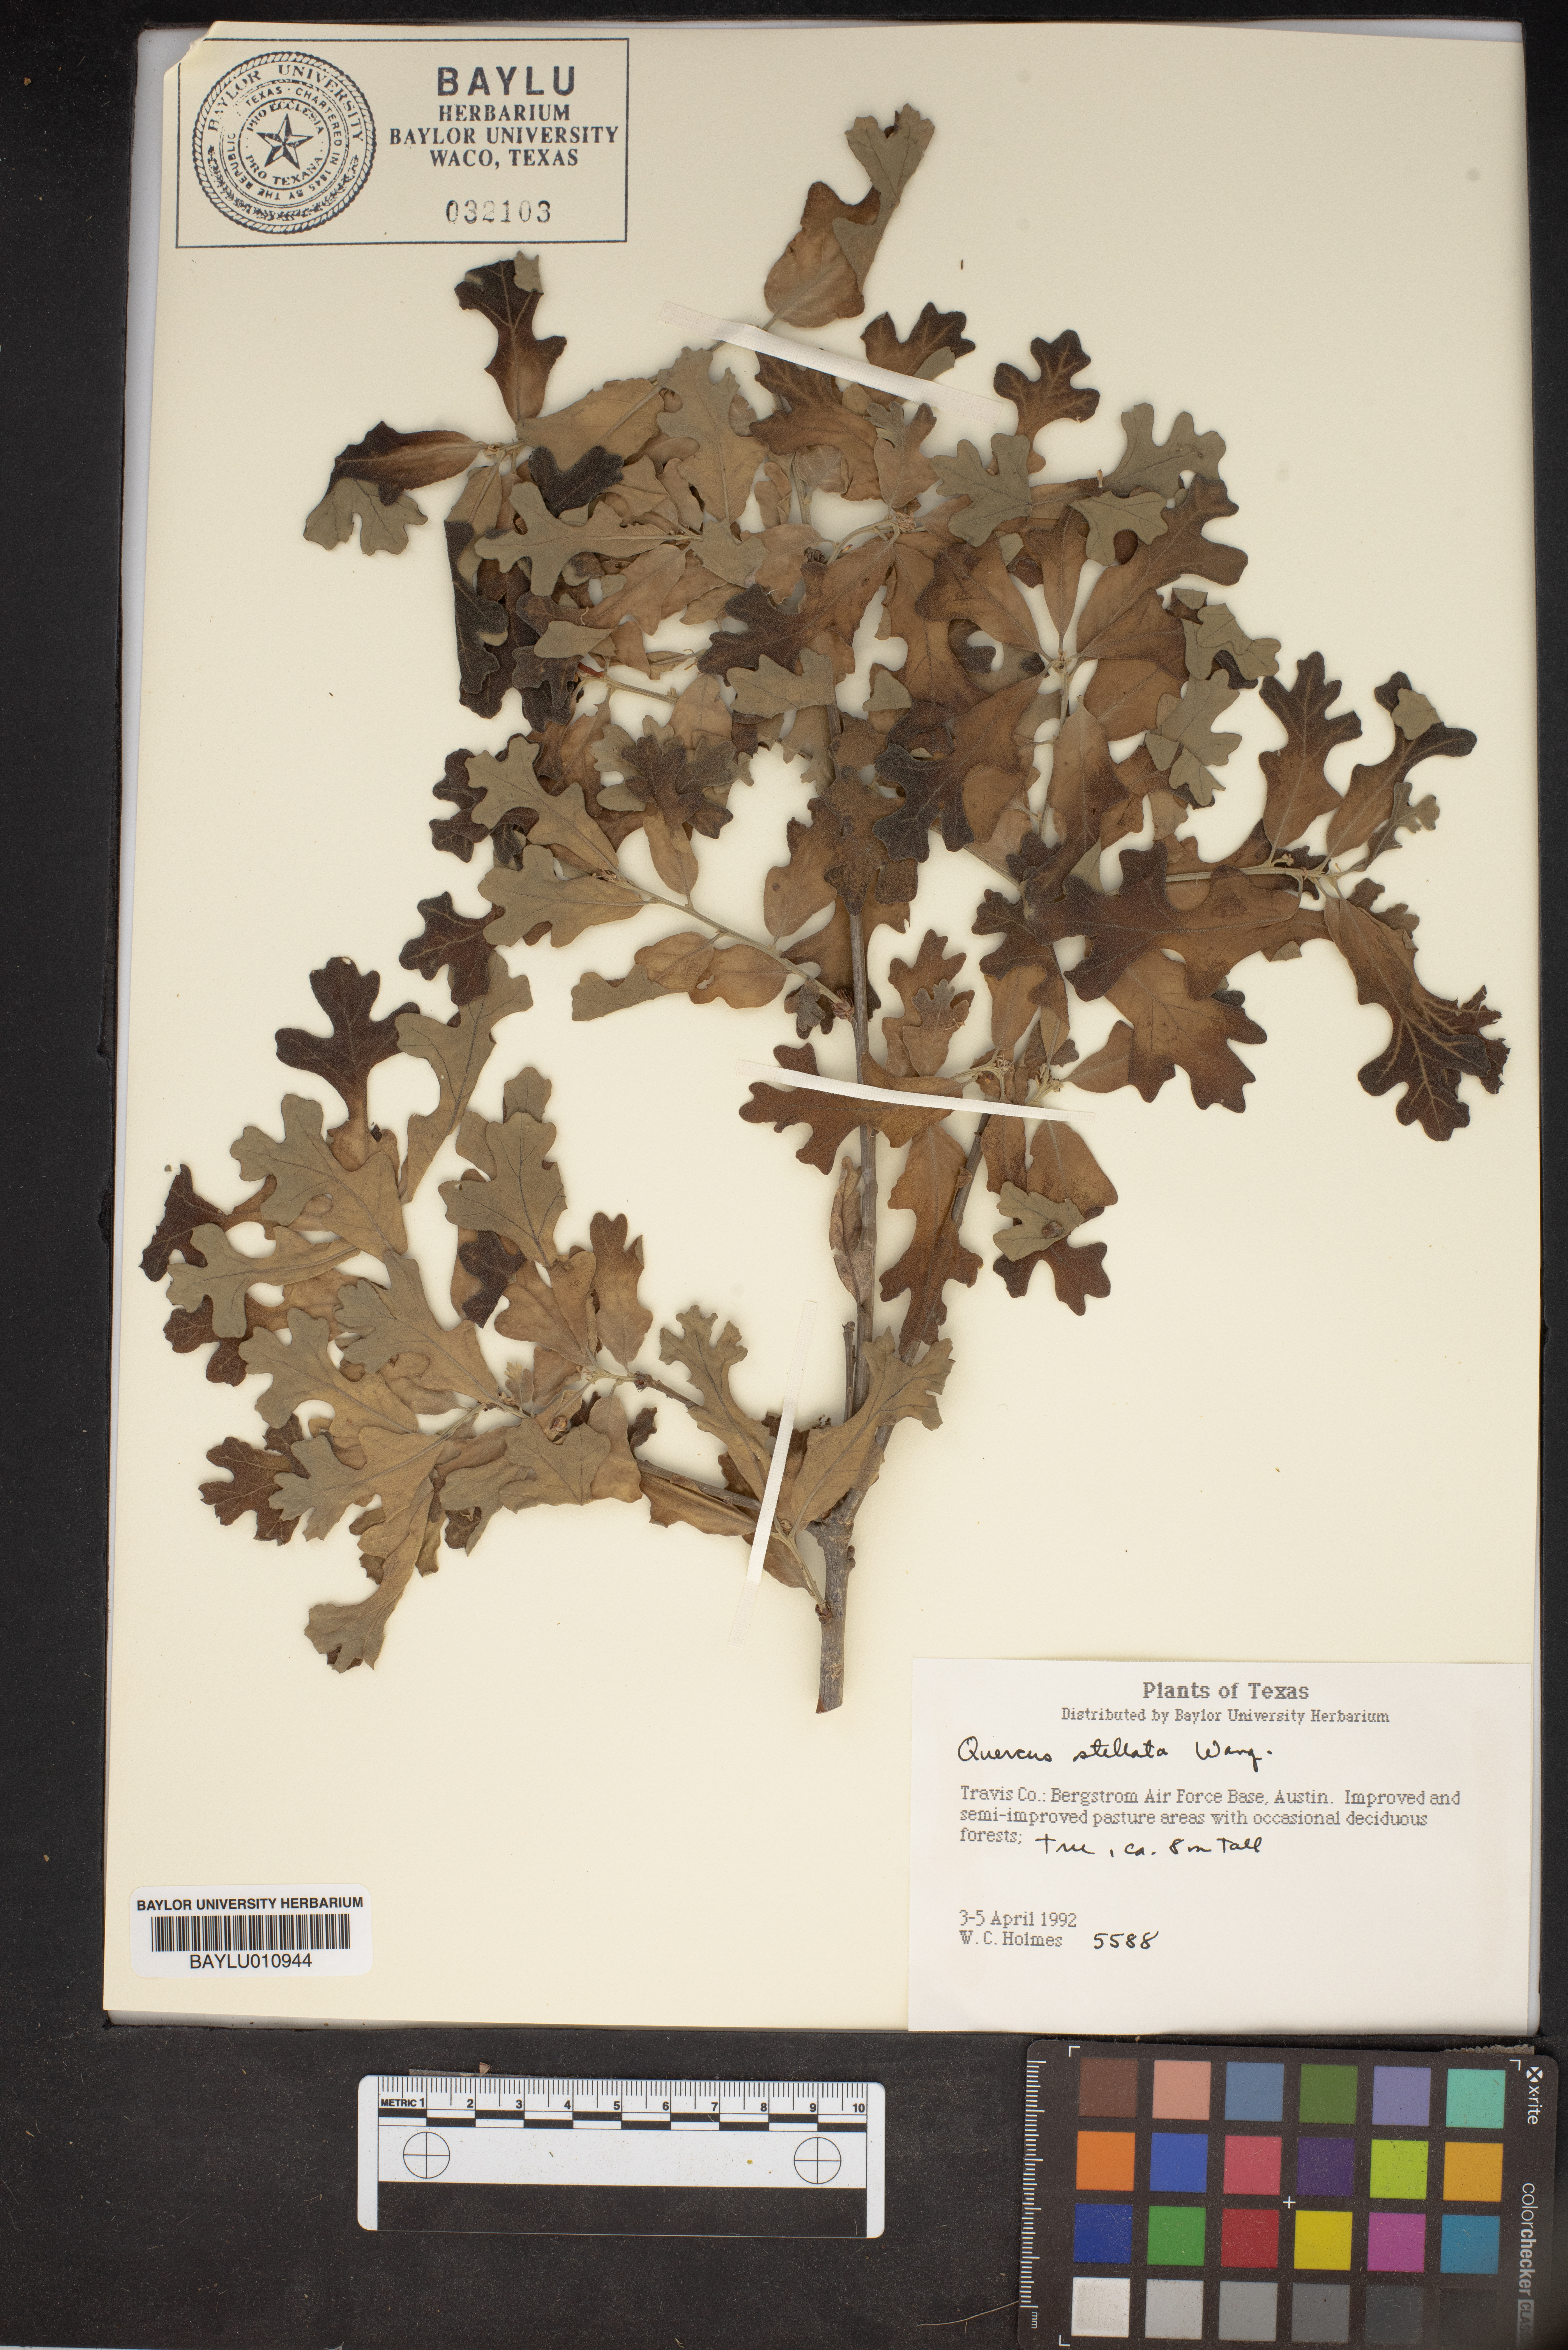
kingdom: Plantae
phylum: Tracheophyta
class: Magnoliopsida
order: Fagales
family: Fagaceae
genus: Quercus
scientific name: Quercus stellata
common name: Post oak
